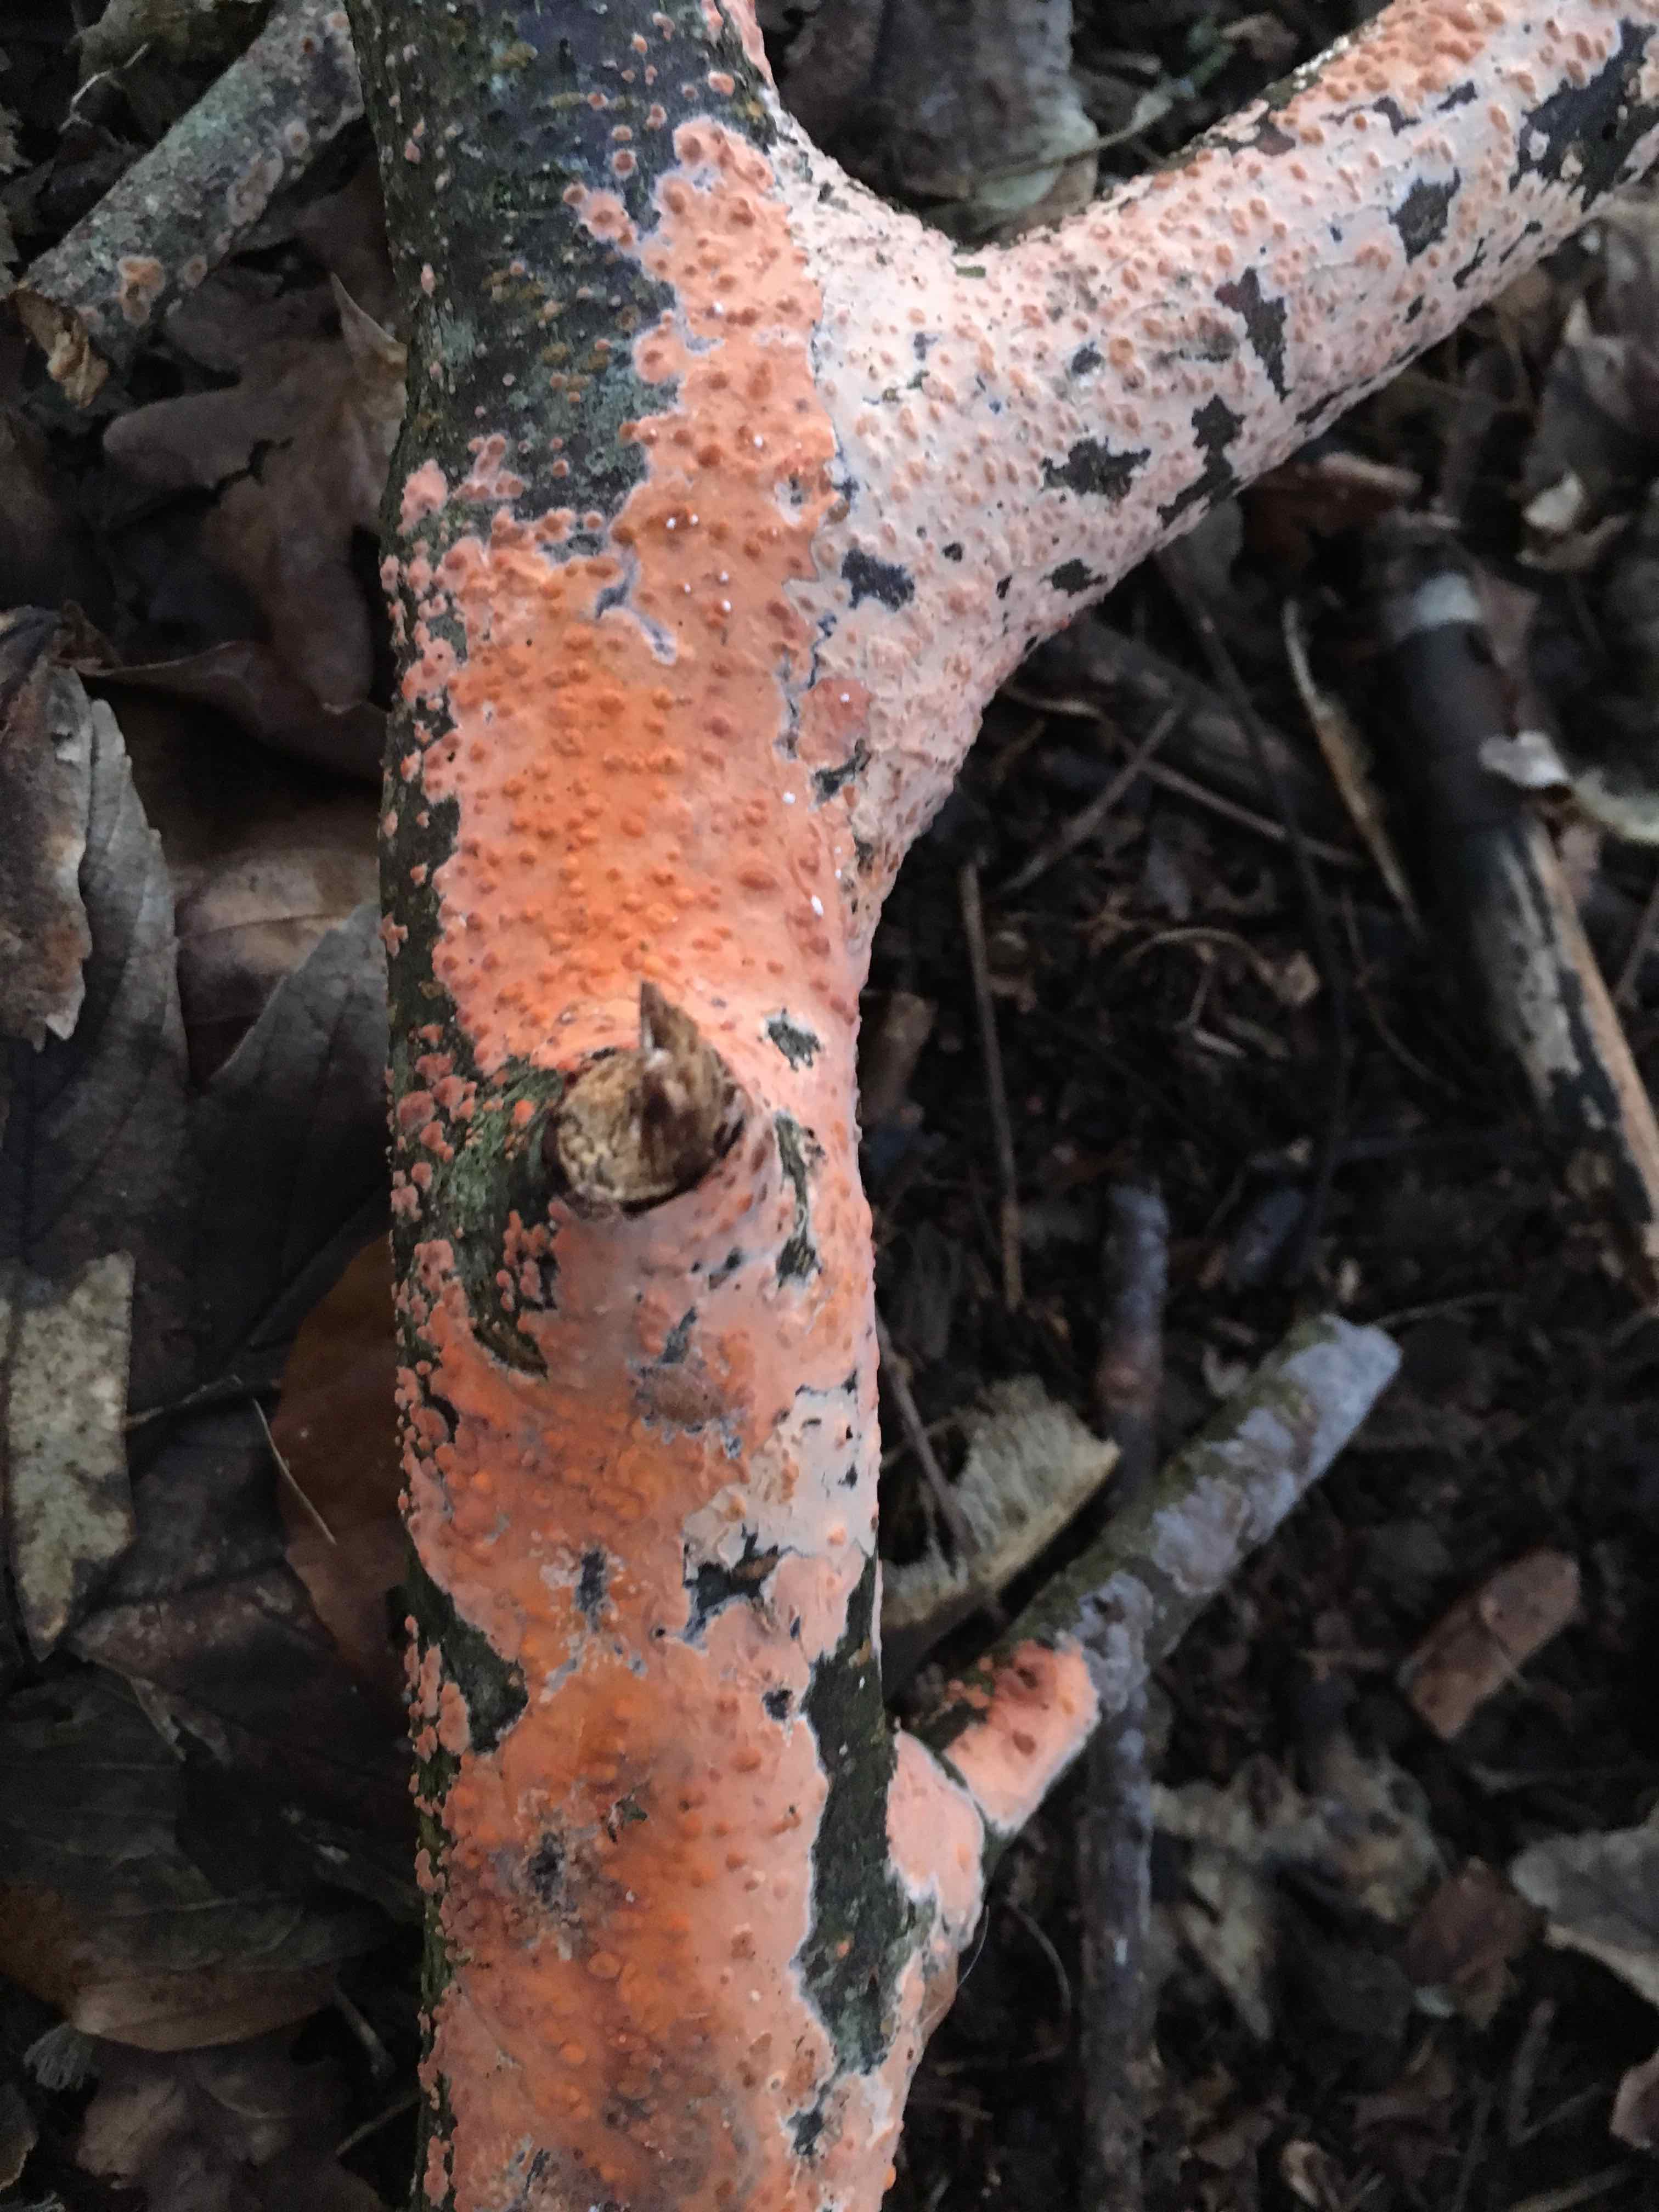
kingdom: Fungi
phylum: Basidiomycota
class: Agaricomycetes
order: Russulales
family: Peniophoraceae
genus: Peniophora
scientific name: Peniophora incarnata
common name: laksefarvet voksskind
